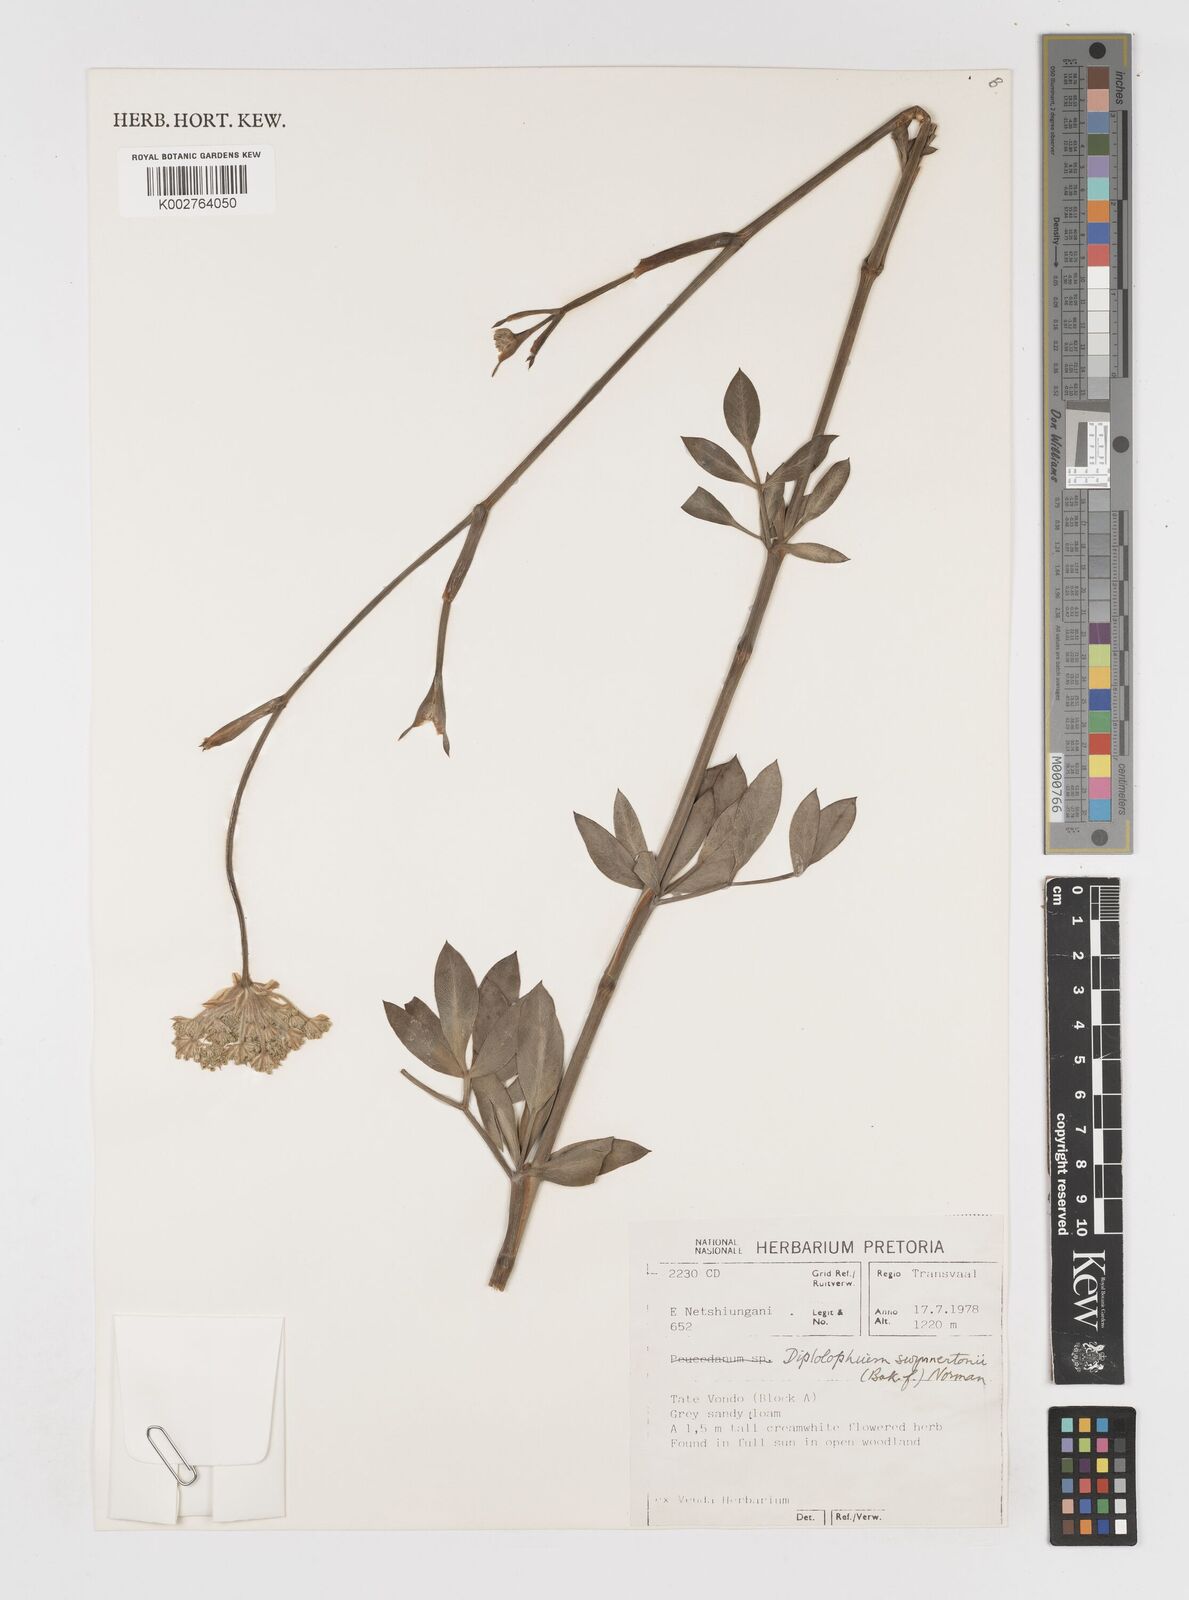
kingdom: Plantae
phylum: Tracheophyta
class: Magnoliopsida
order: Apiales
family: Apiaceae
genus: Diplolophium
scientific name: Diplolophium swynnertonii
